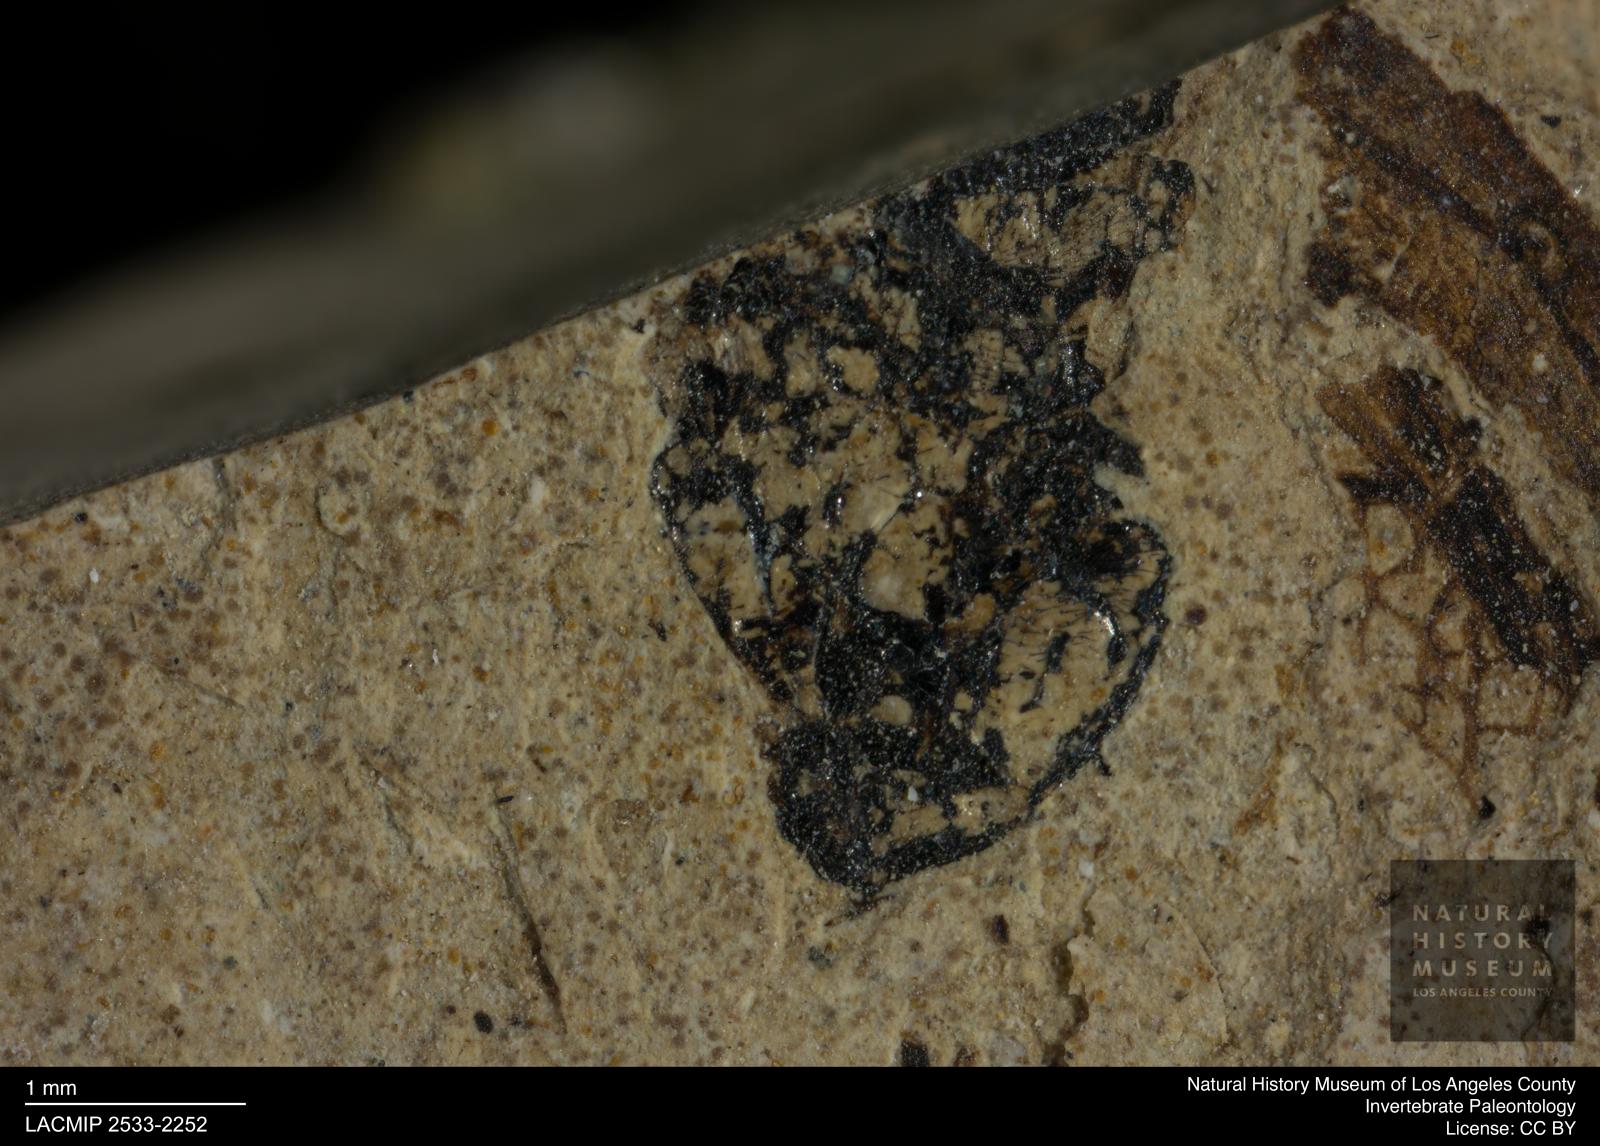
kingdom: Animalia
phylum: Arthropoda
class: Insecta
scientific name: Insecta
